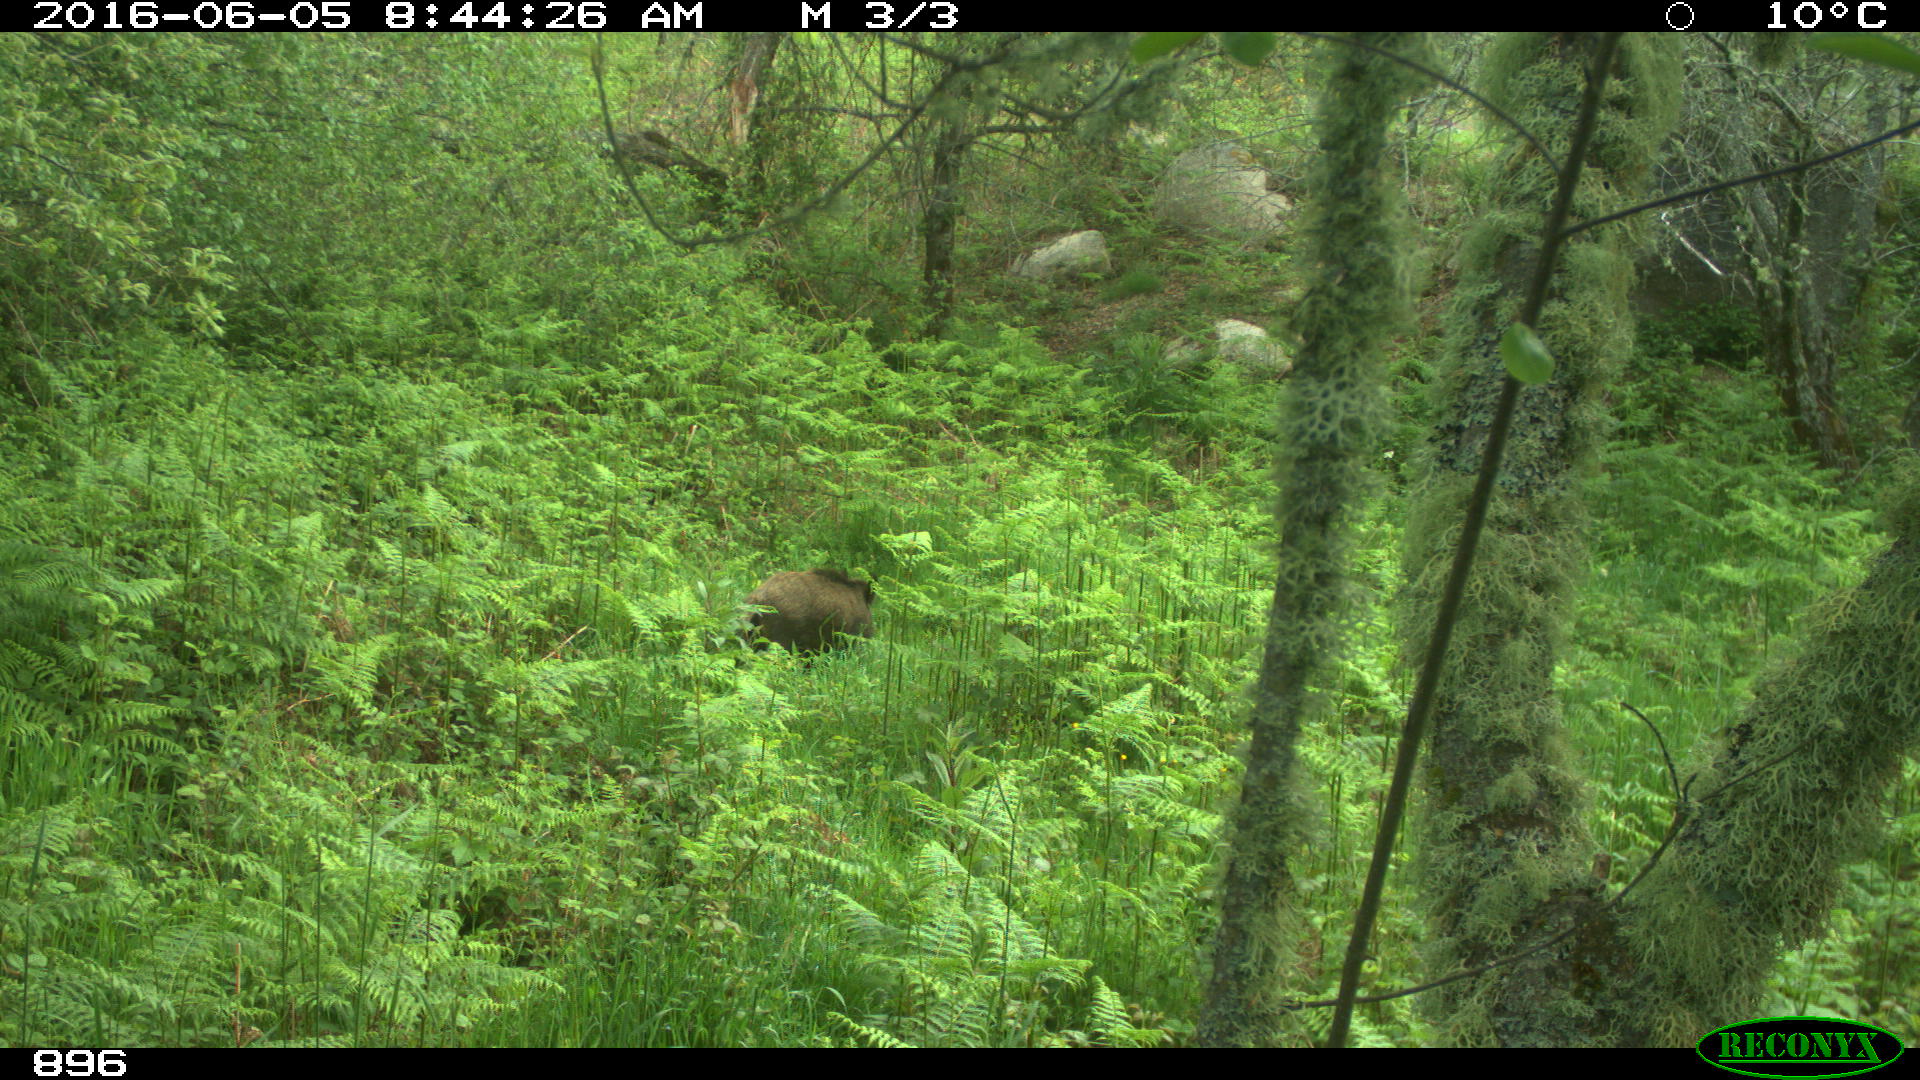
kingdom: Animalia
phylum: Chordata
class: Mammalia
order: Artiodactyla
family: Suidae
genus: Sus
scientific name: Sus scrofa
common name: Wild boar
